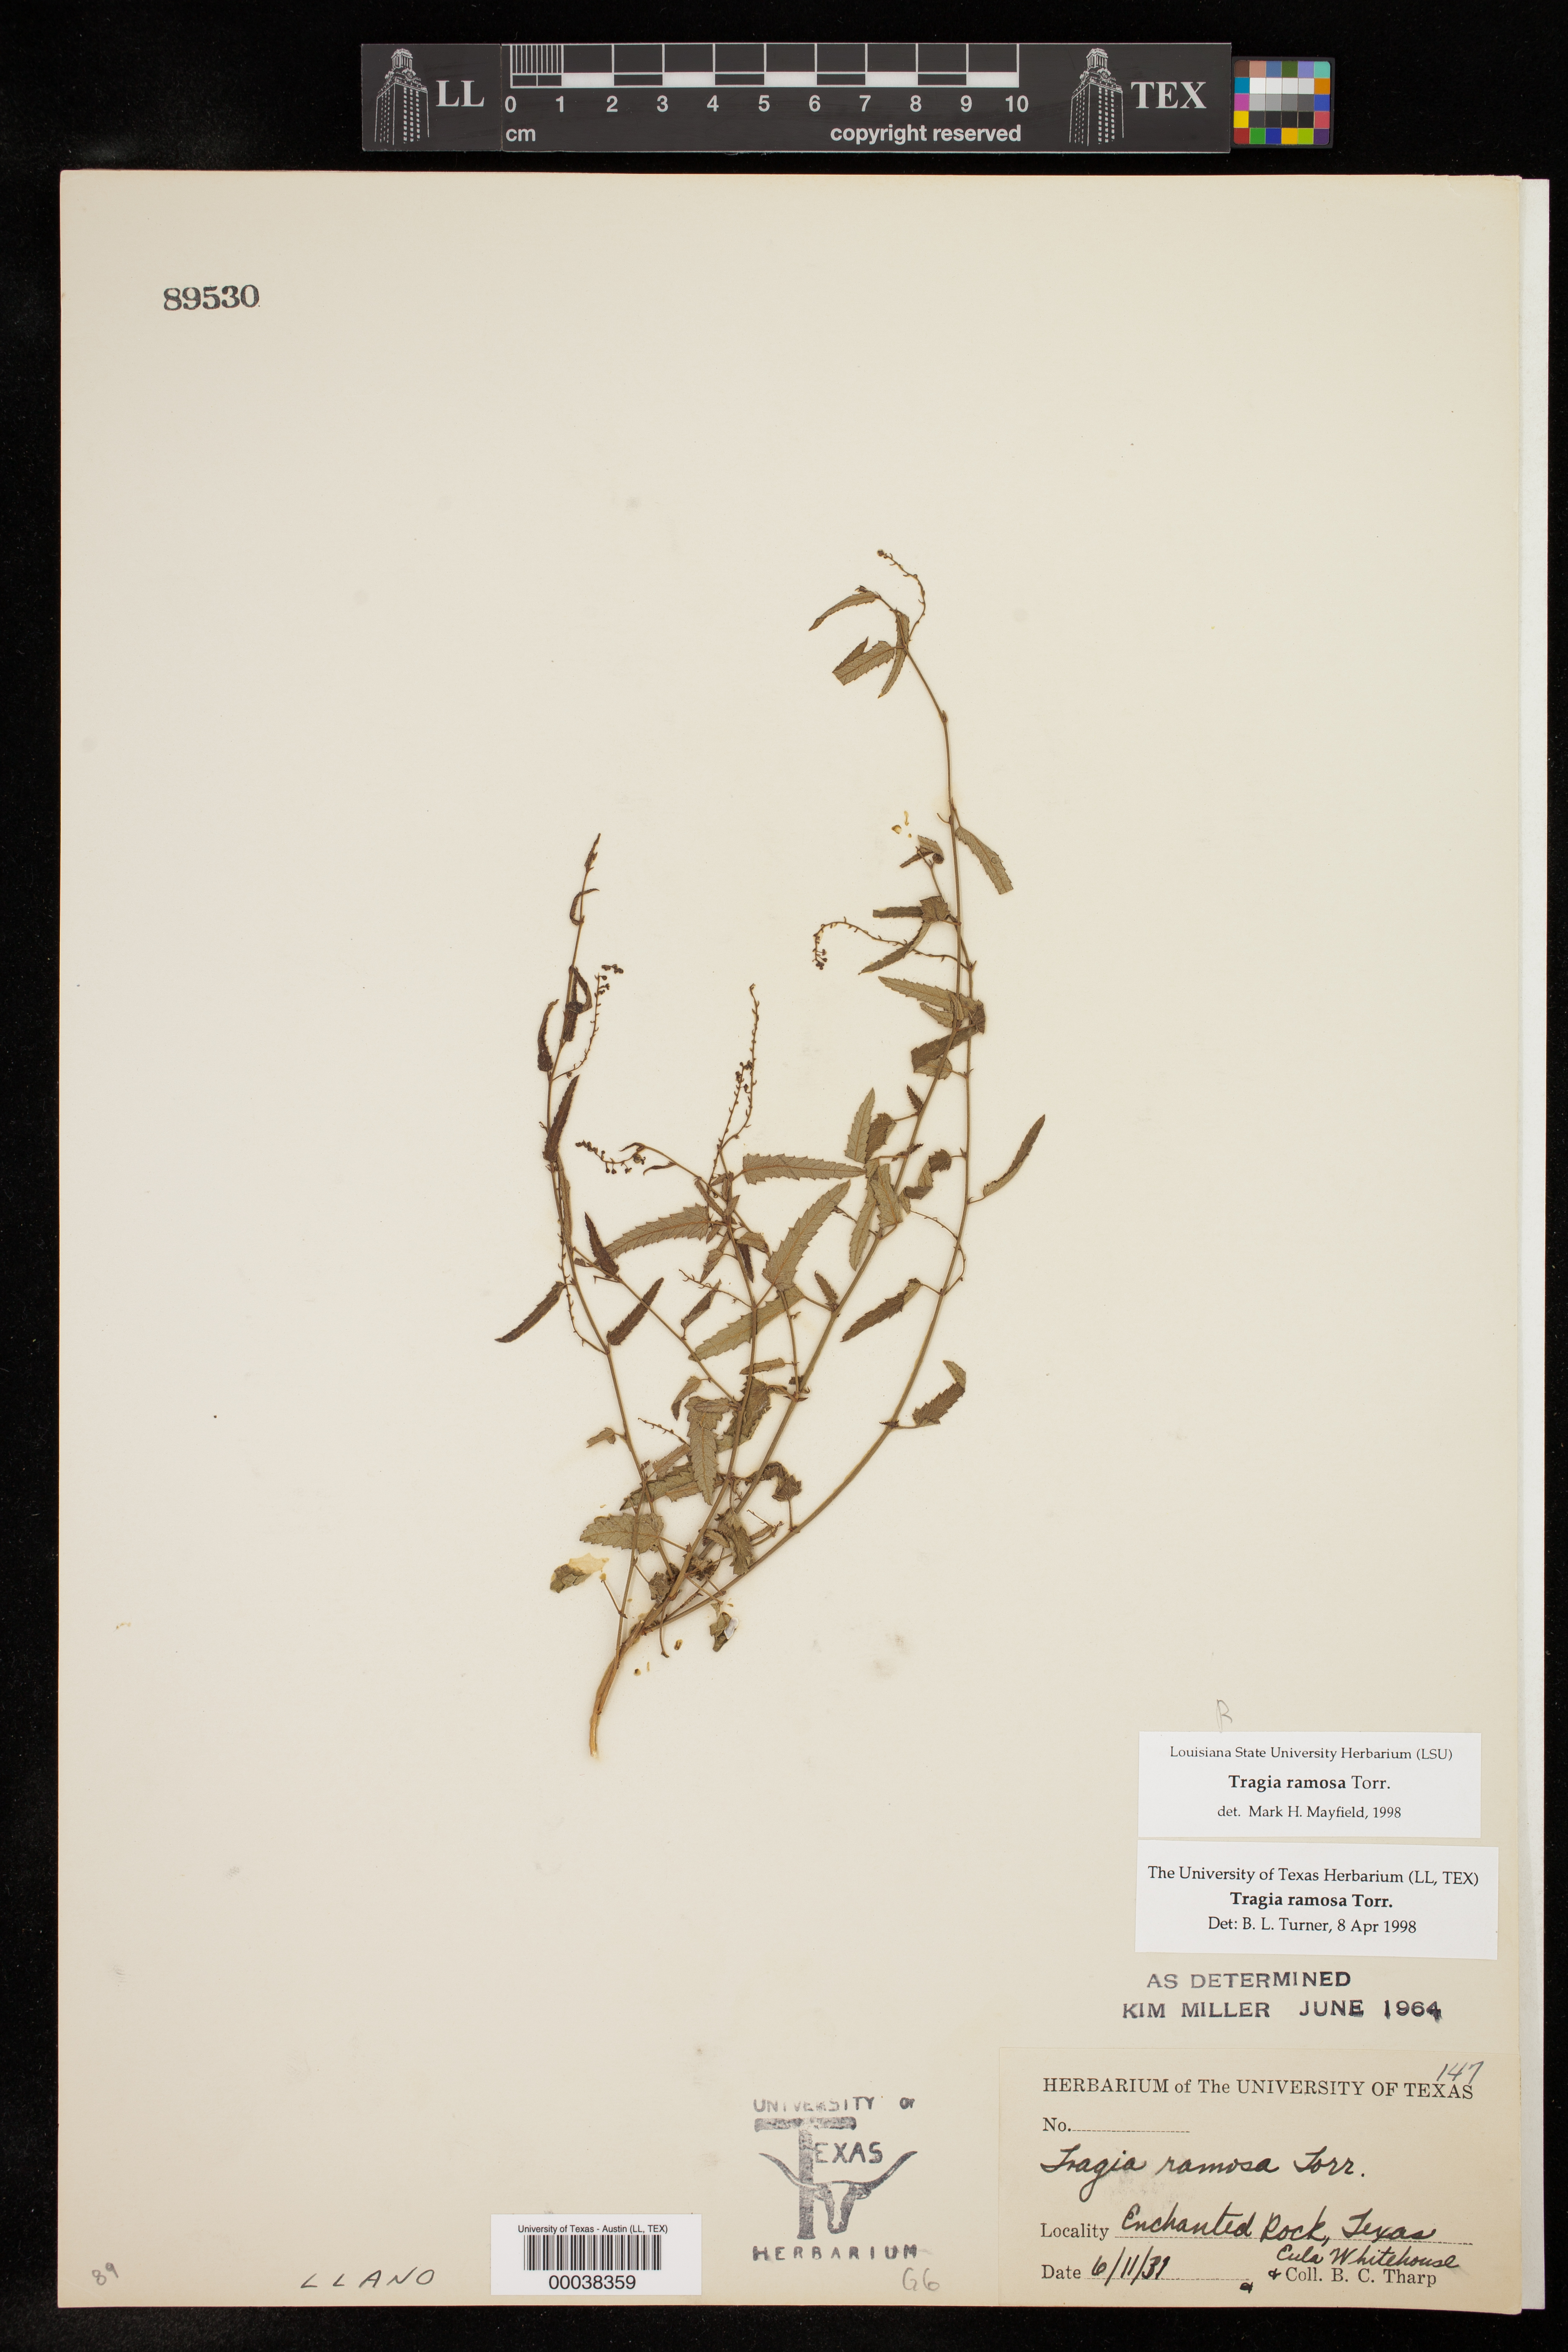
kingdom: Plantae
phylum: Tracheophyta
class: Magnoliopsida
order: Malpighiales
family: Euphorbiaceae
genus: Tragia
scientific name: Tragia ramosa
